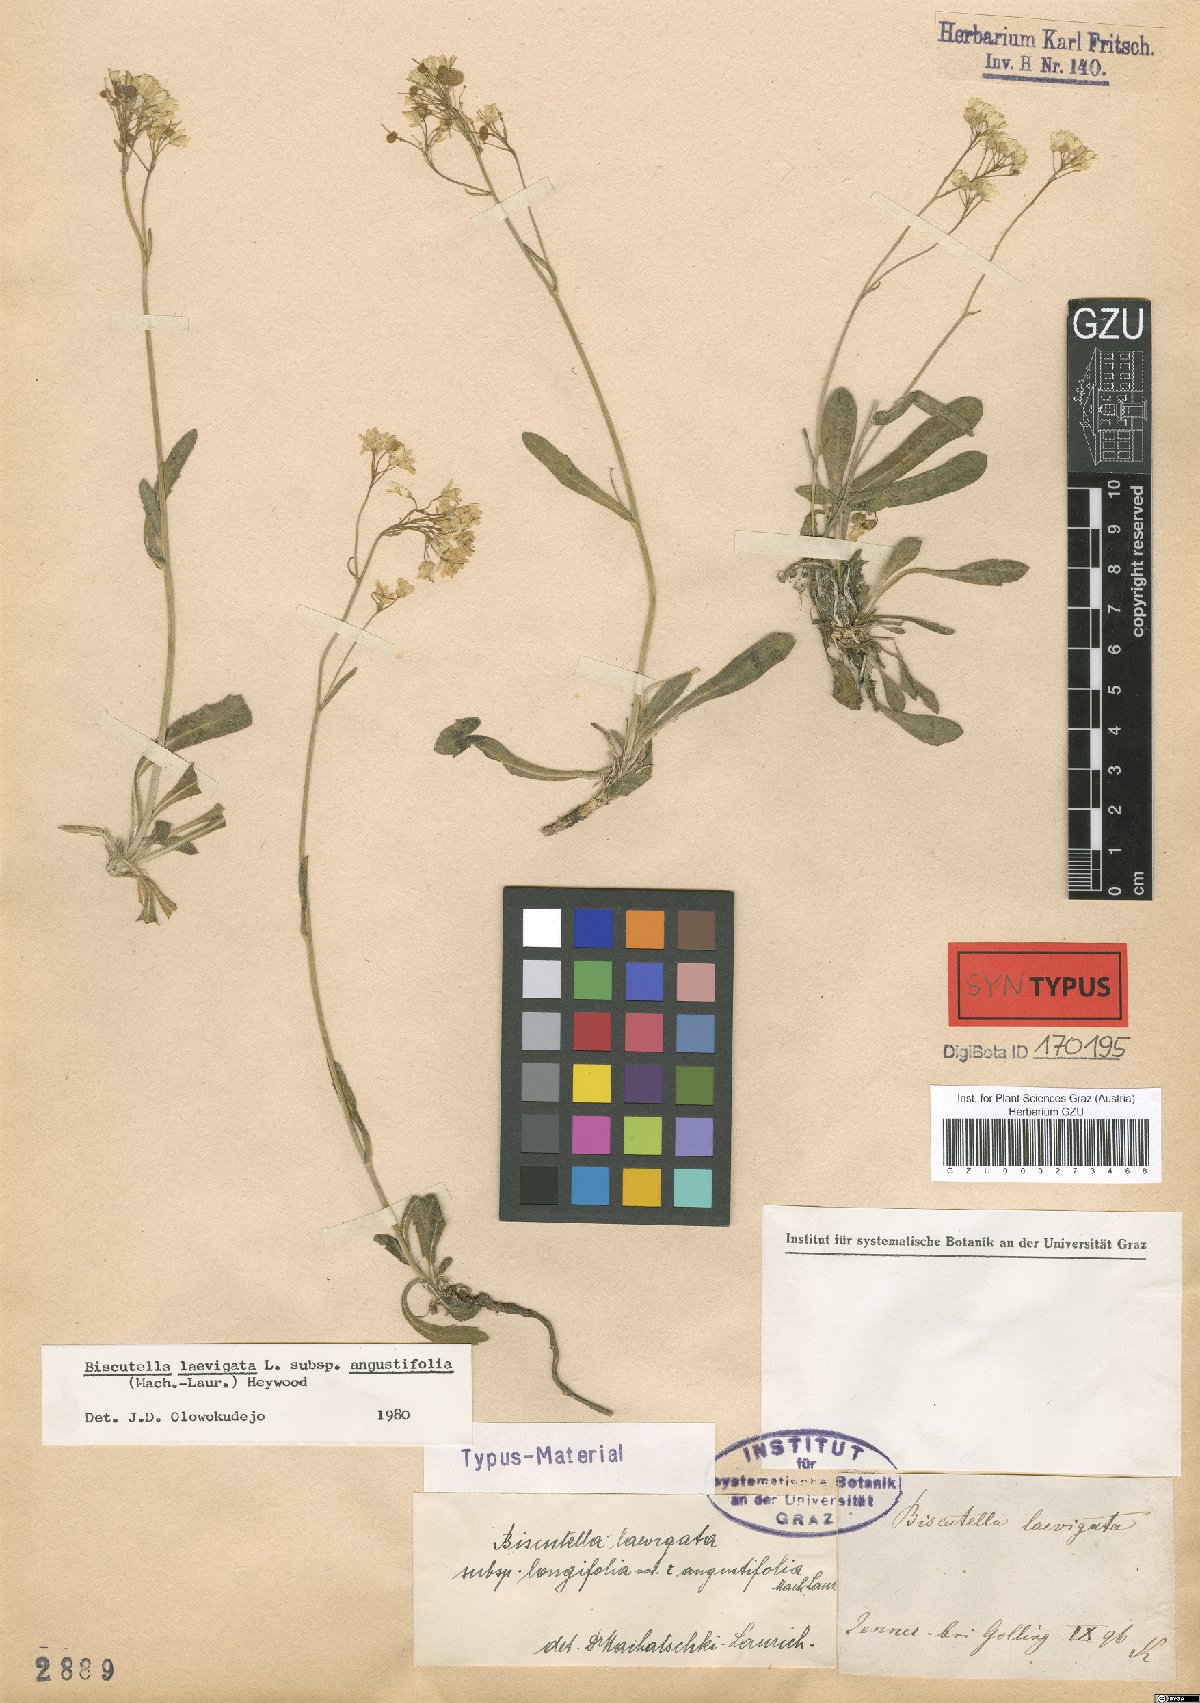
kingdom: Plantae
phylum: Tracheophyta
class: Magnoliopsida
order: Brassicales
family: Brassicaceae
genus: Biscutella
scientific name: Biscutella laevigata
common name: Buckler mustard
